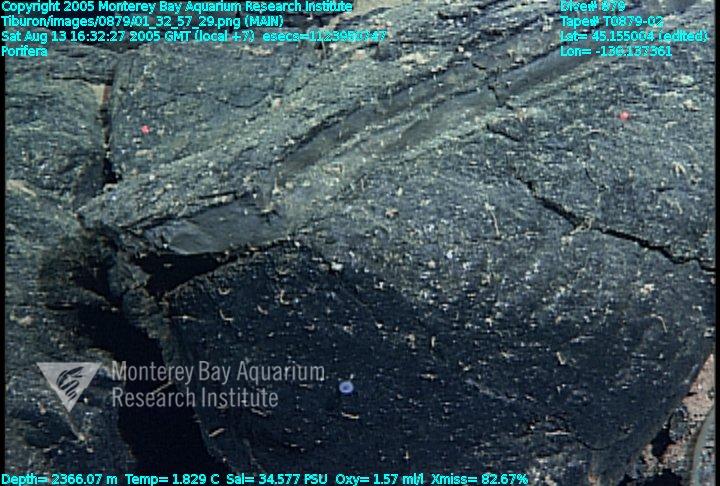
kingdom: Animalia
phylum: Porifera
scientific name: Porifera
